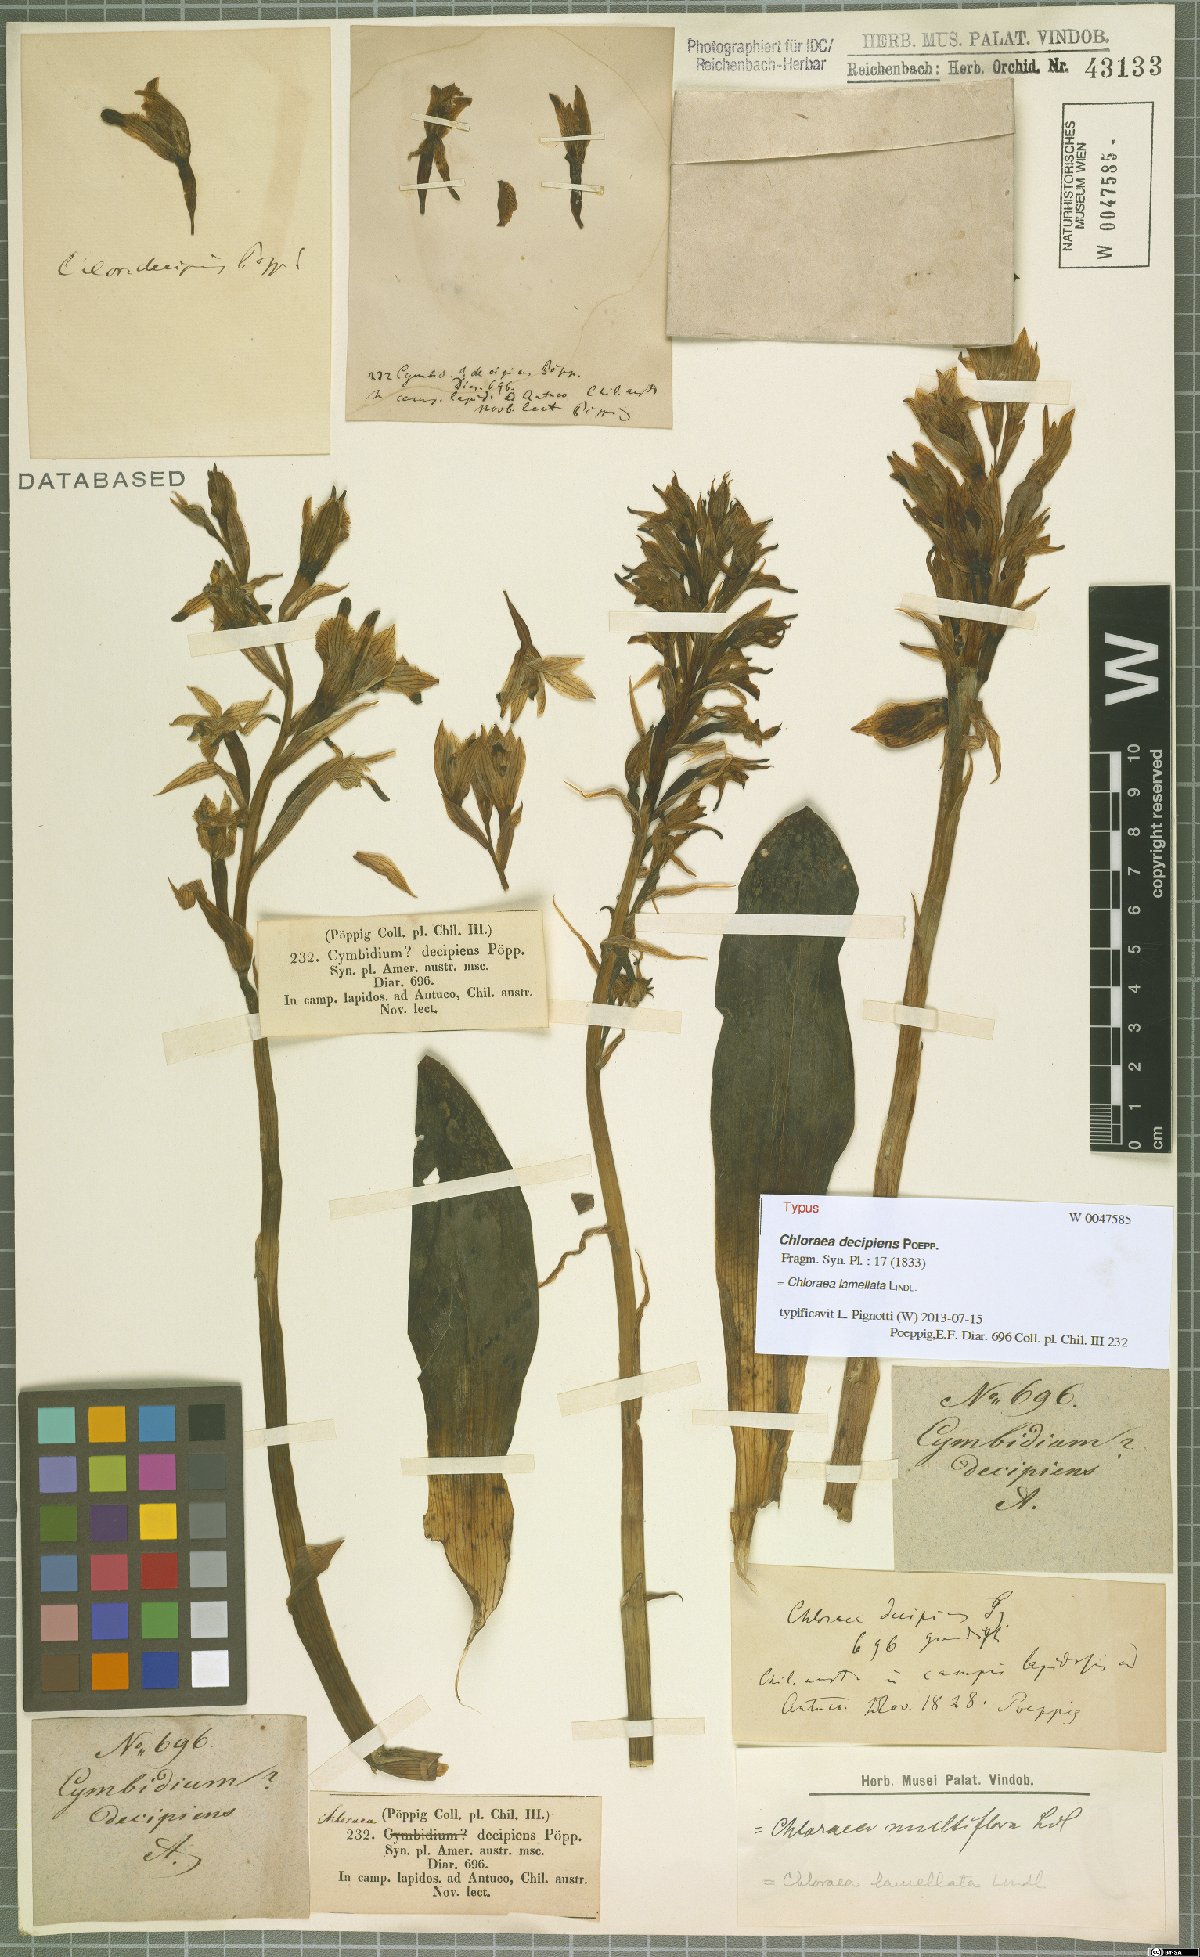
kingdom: Plantae
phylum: Tracheophyta
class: Liliopsida
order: Asparagales
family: Orchidaceae
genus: Chloraea
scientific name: Chloraea lamellata
